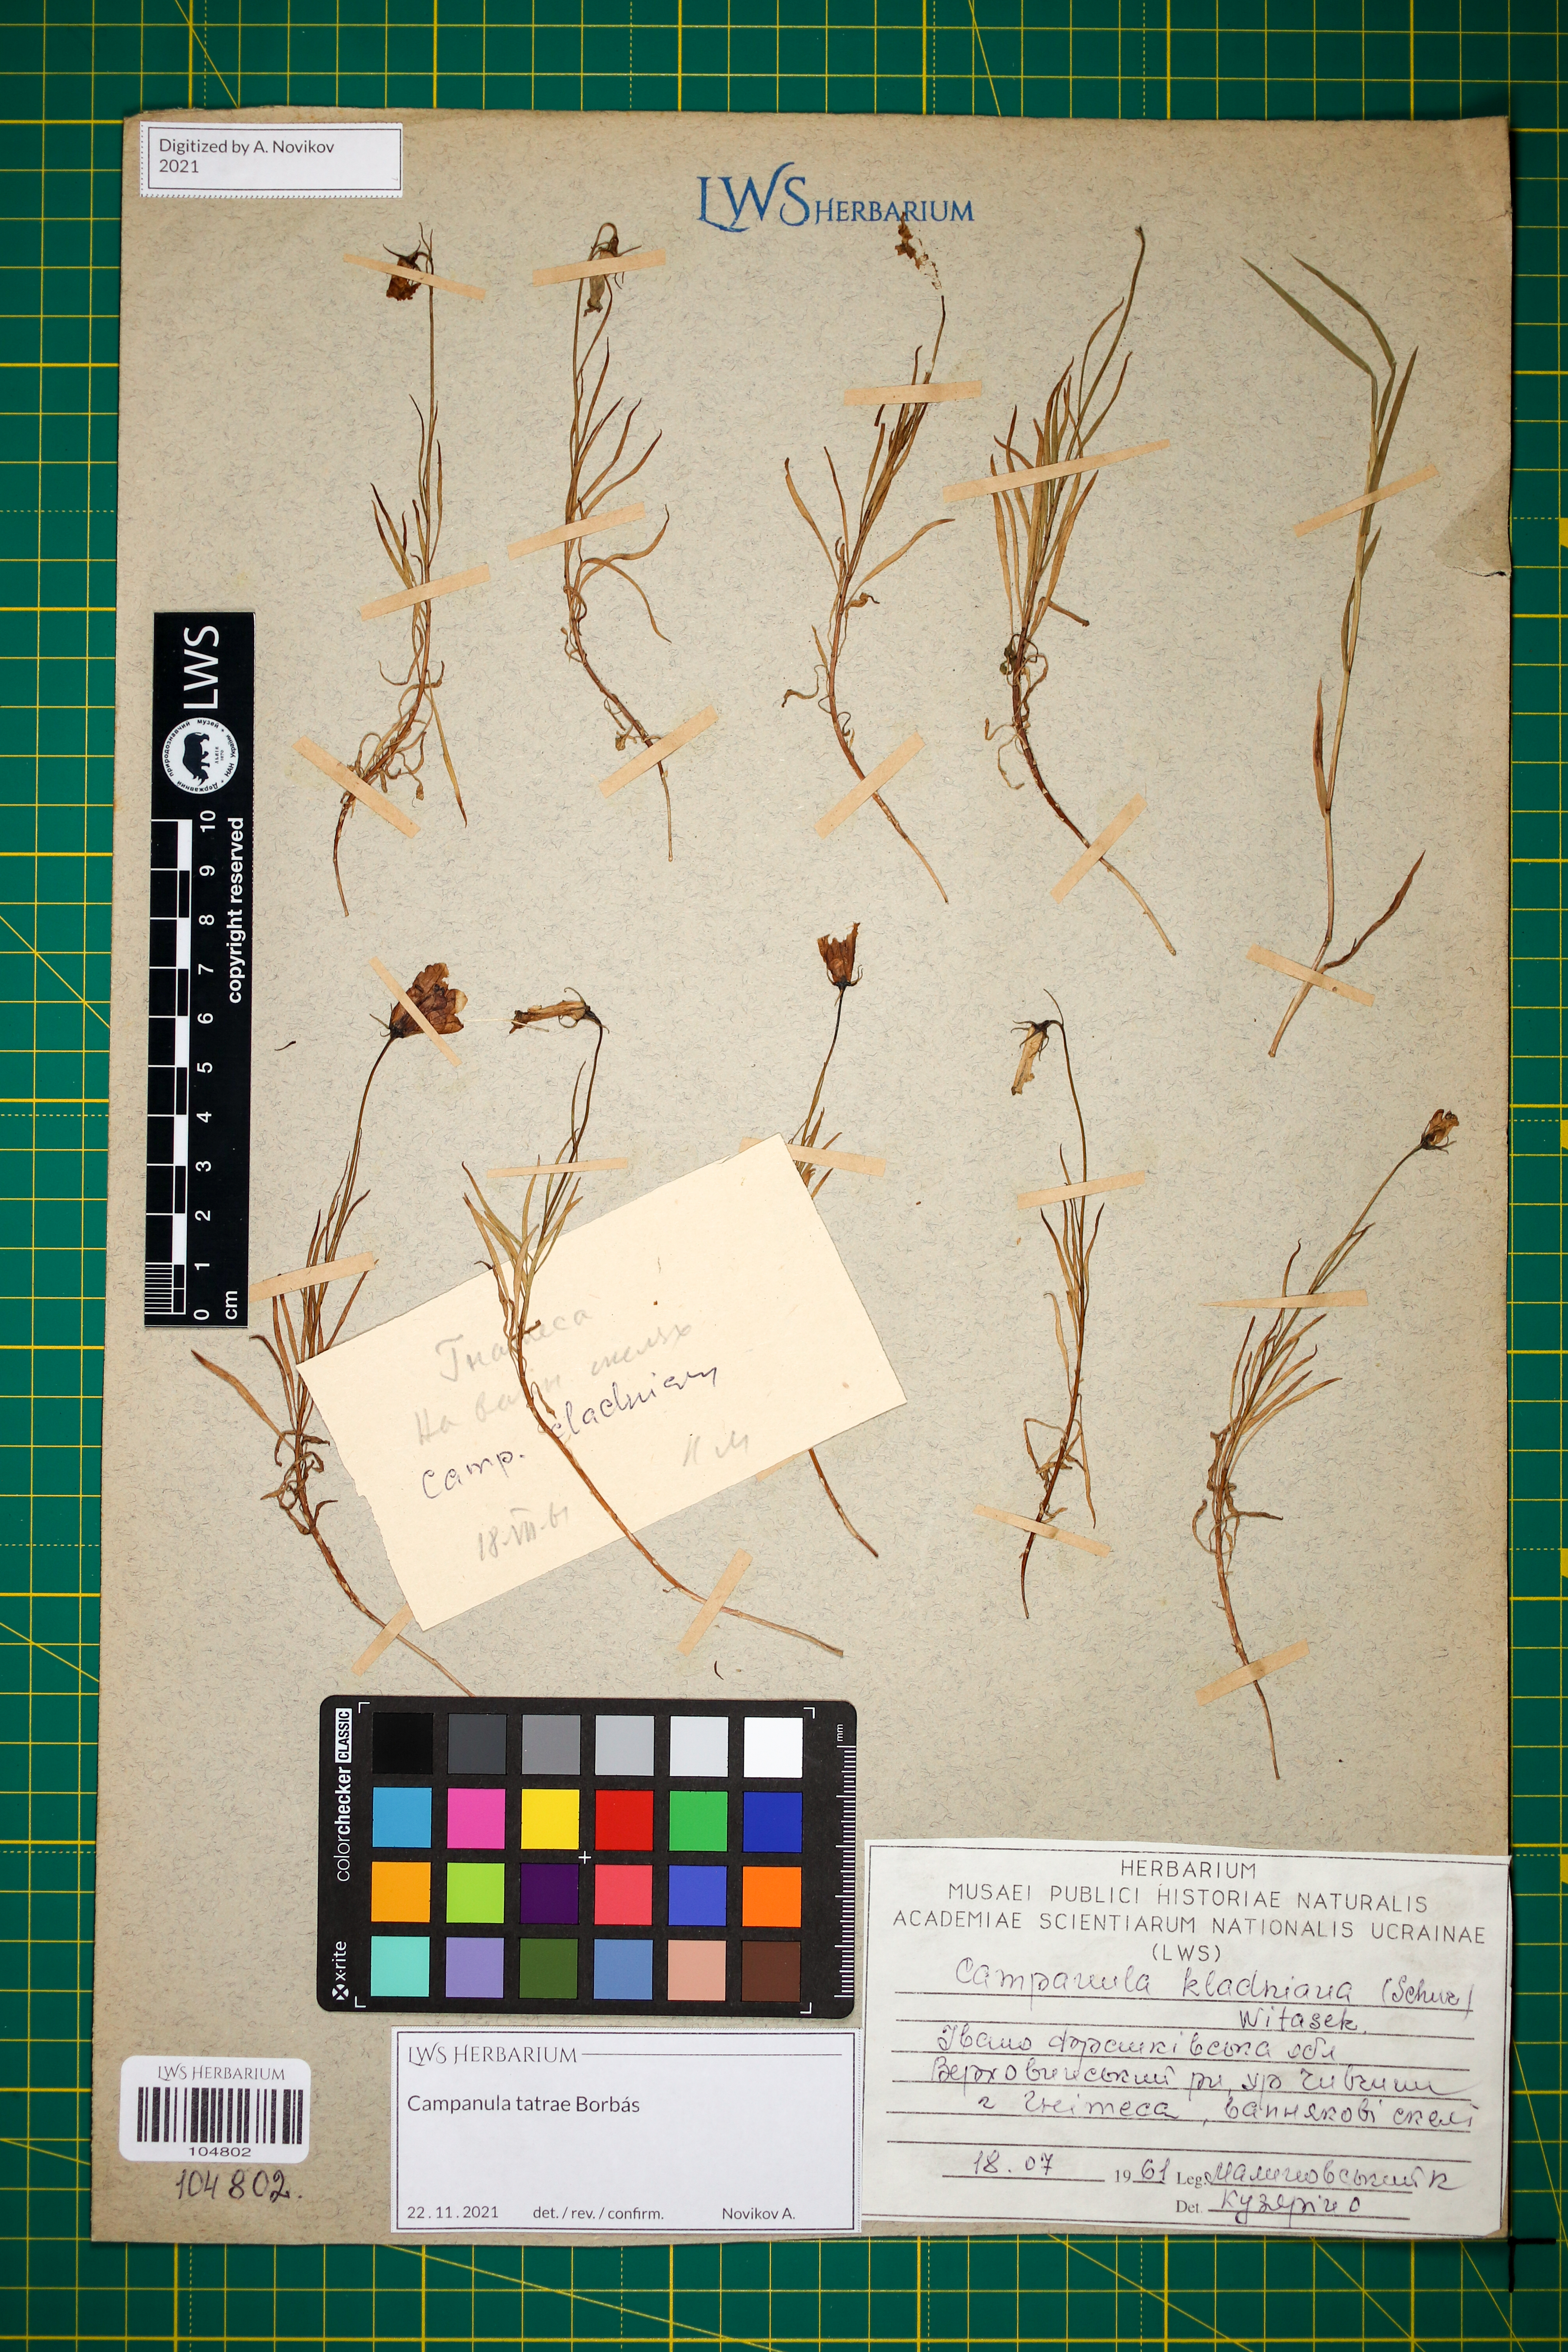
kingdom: Plantae
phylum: Tracheophyta
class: Magnoliopsida
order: Asterales
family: Campanulaceae
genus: Campanula
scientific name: Campanula kladniana
